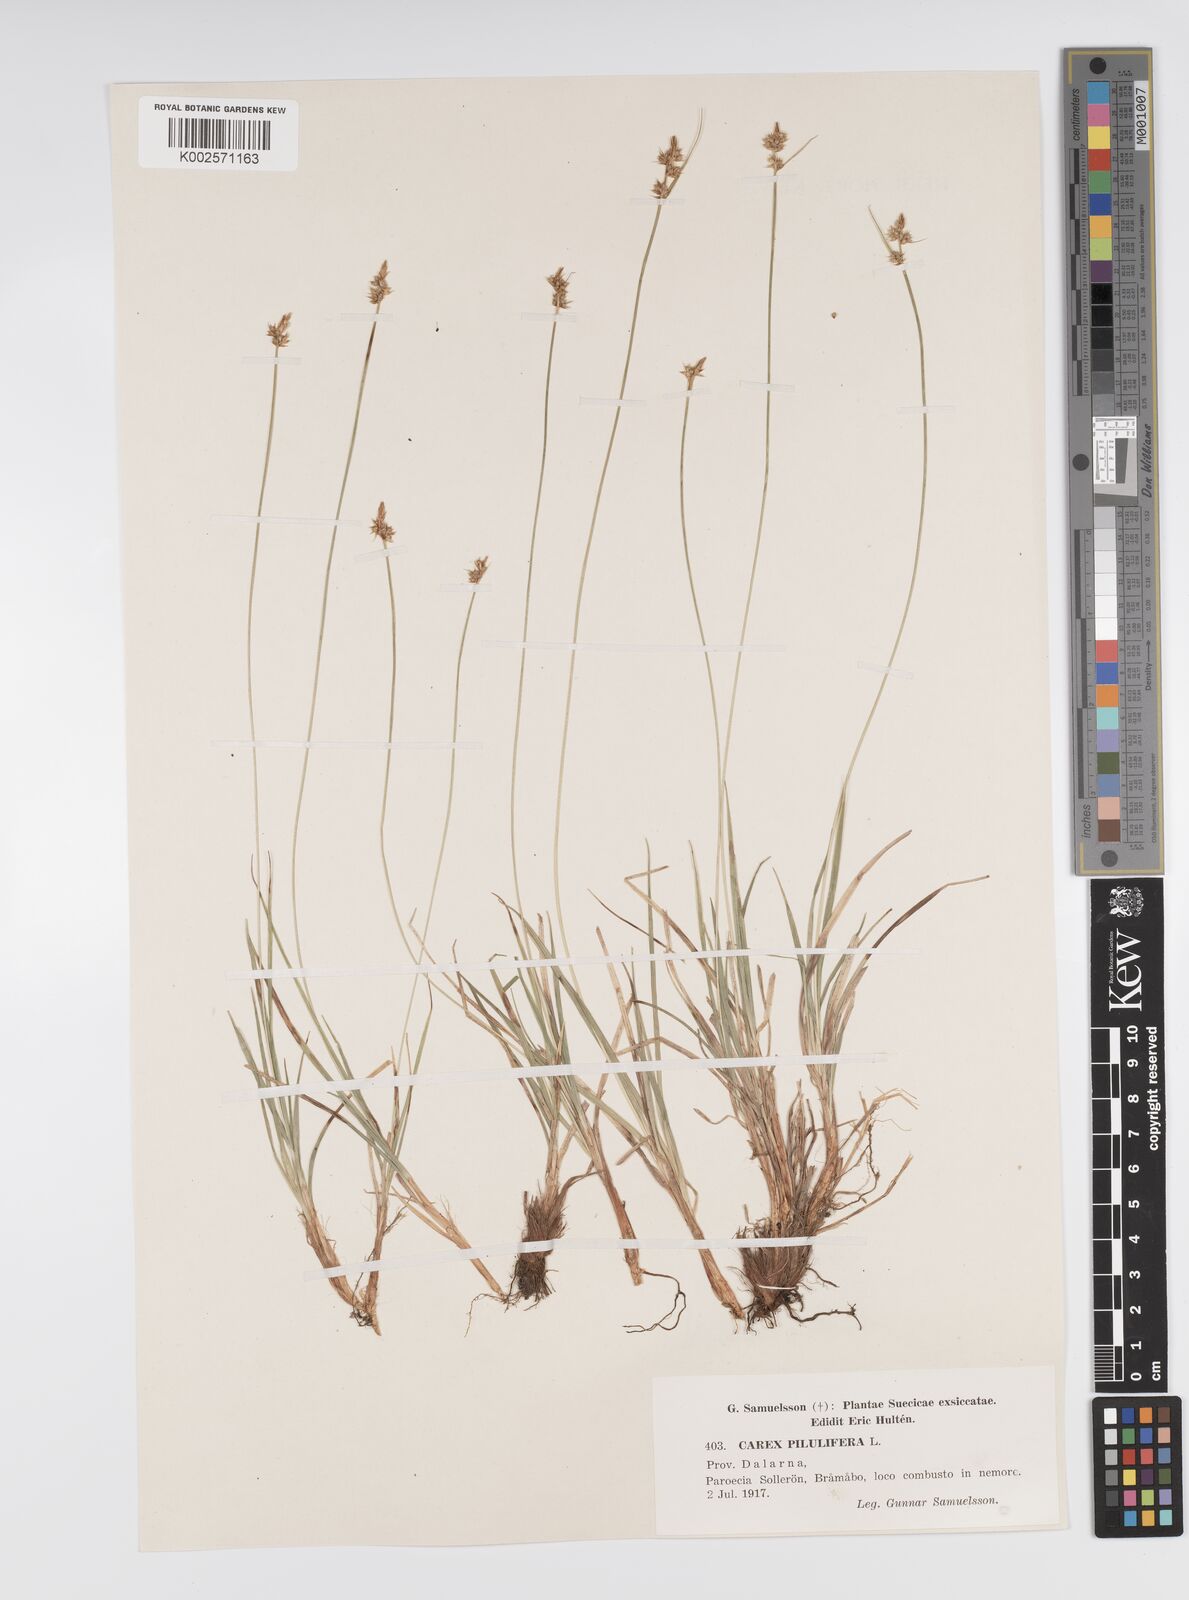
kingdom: Plantae
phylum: Tracheophyta
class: Liliopsida
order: Poales
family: Cyperaceae
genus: Carex
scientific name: Carex pilulifera
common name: Pill sedge
